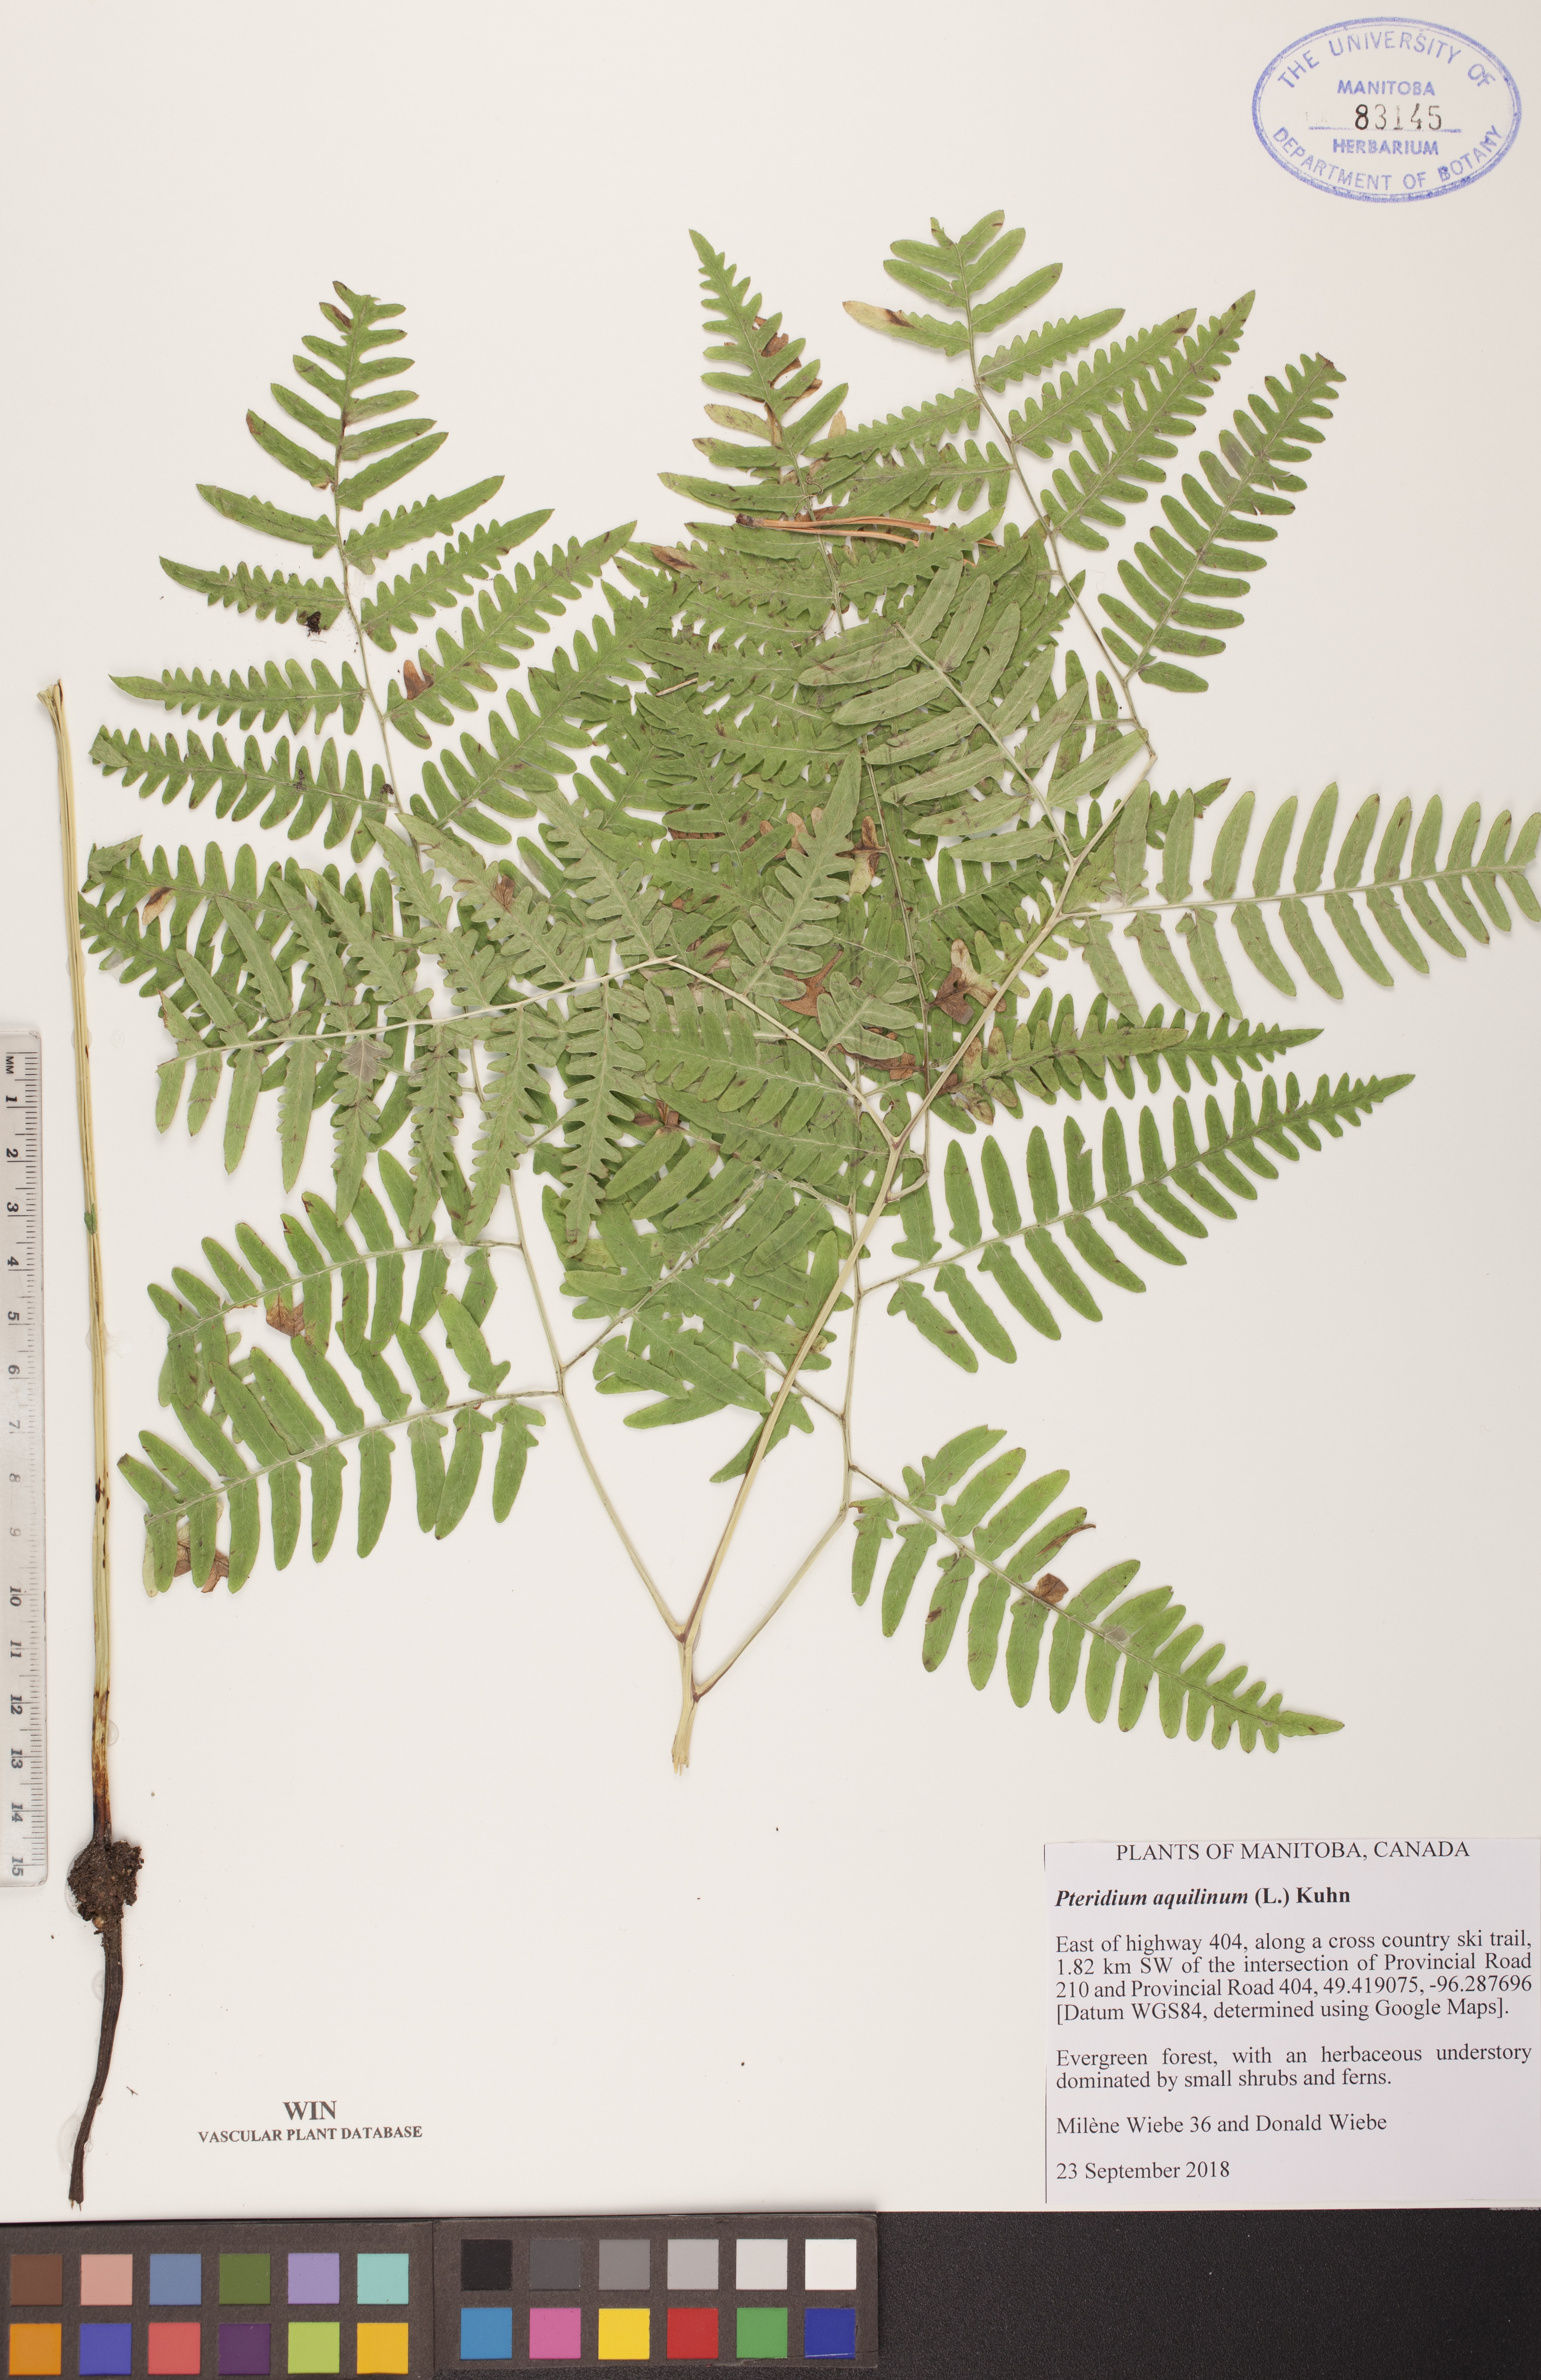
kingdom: Plantae
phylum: Tracheophyta
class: Polypodiopsida
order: Polypodiales
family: Dennstaedtiaceae
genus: Pteridium
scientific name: Pteridium aquilinum
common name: Bracken
